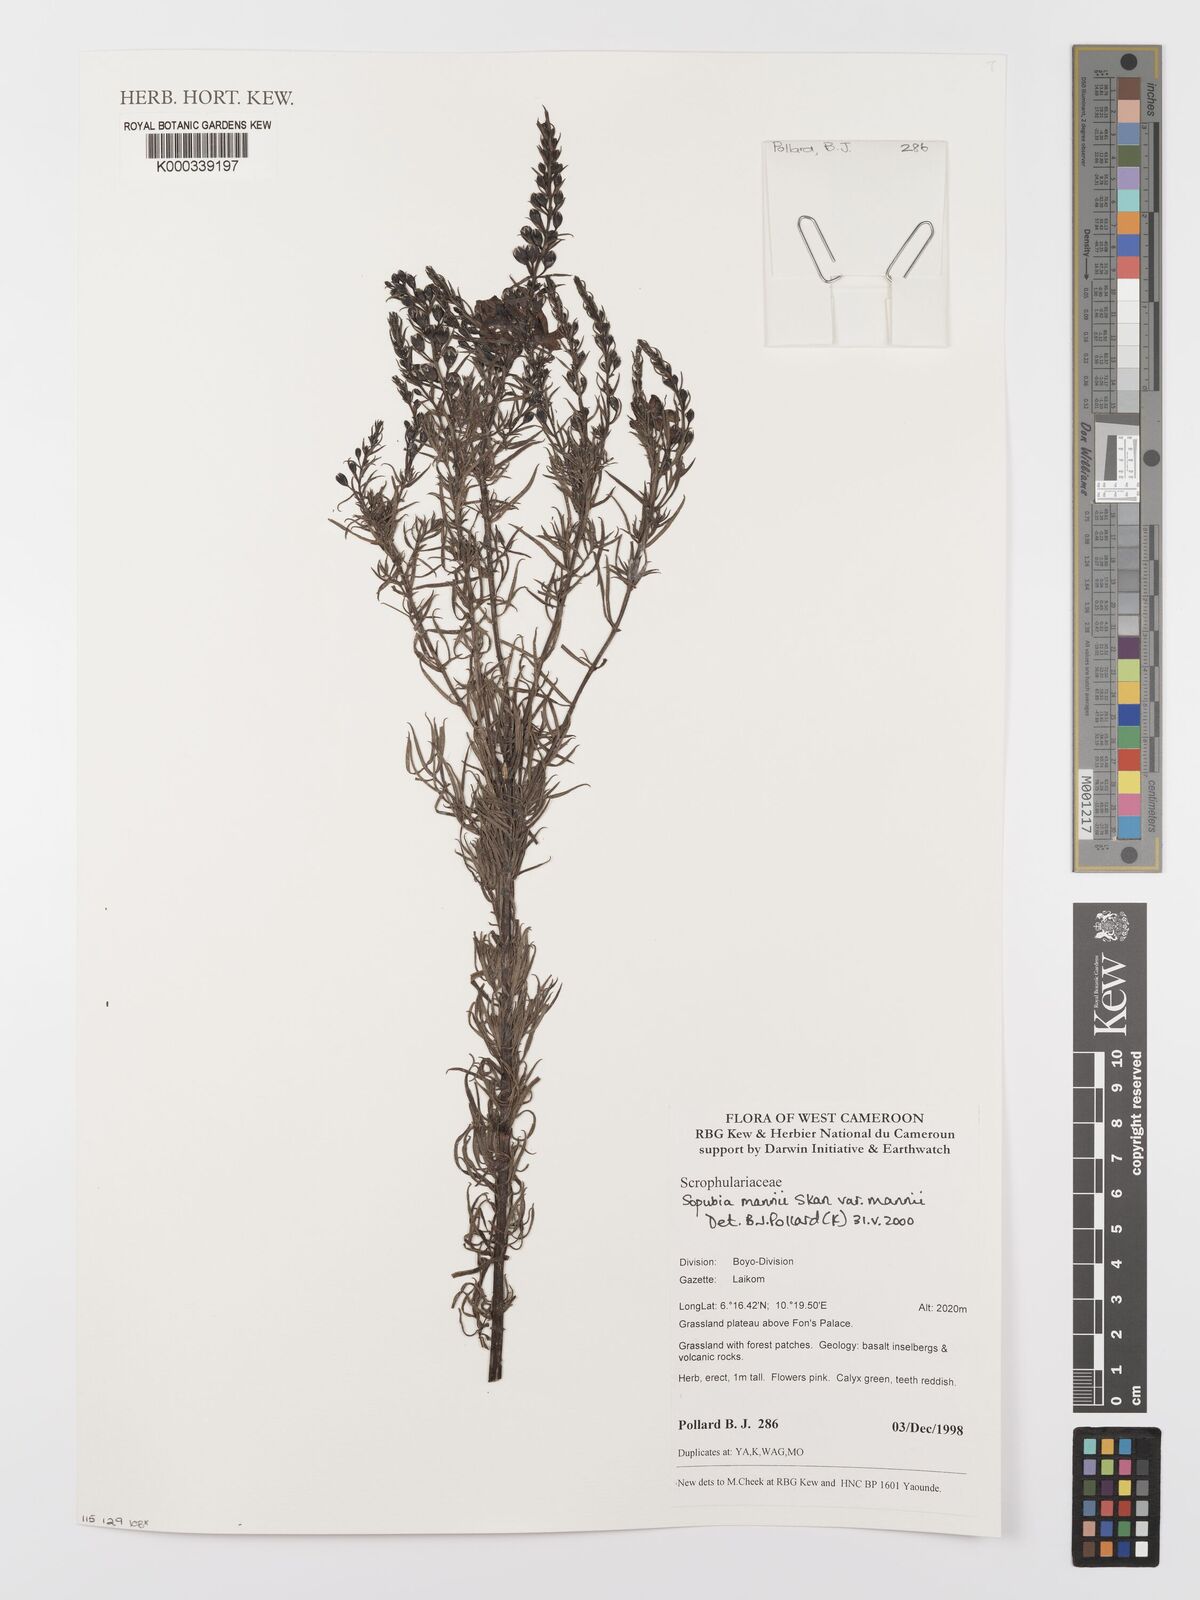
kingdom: Plantae
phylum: Tracheophyta
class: Magnoliopsida
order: Lamiales
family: Orobanchaceae
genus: Sopubia
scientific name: Sopubia mannii
